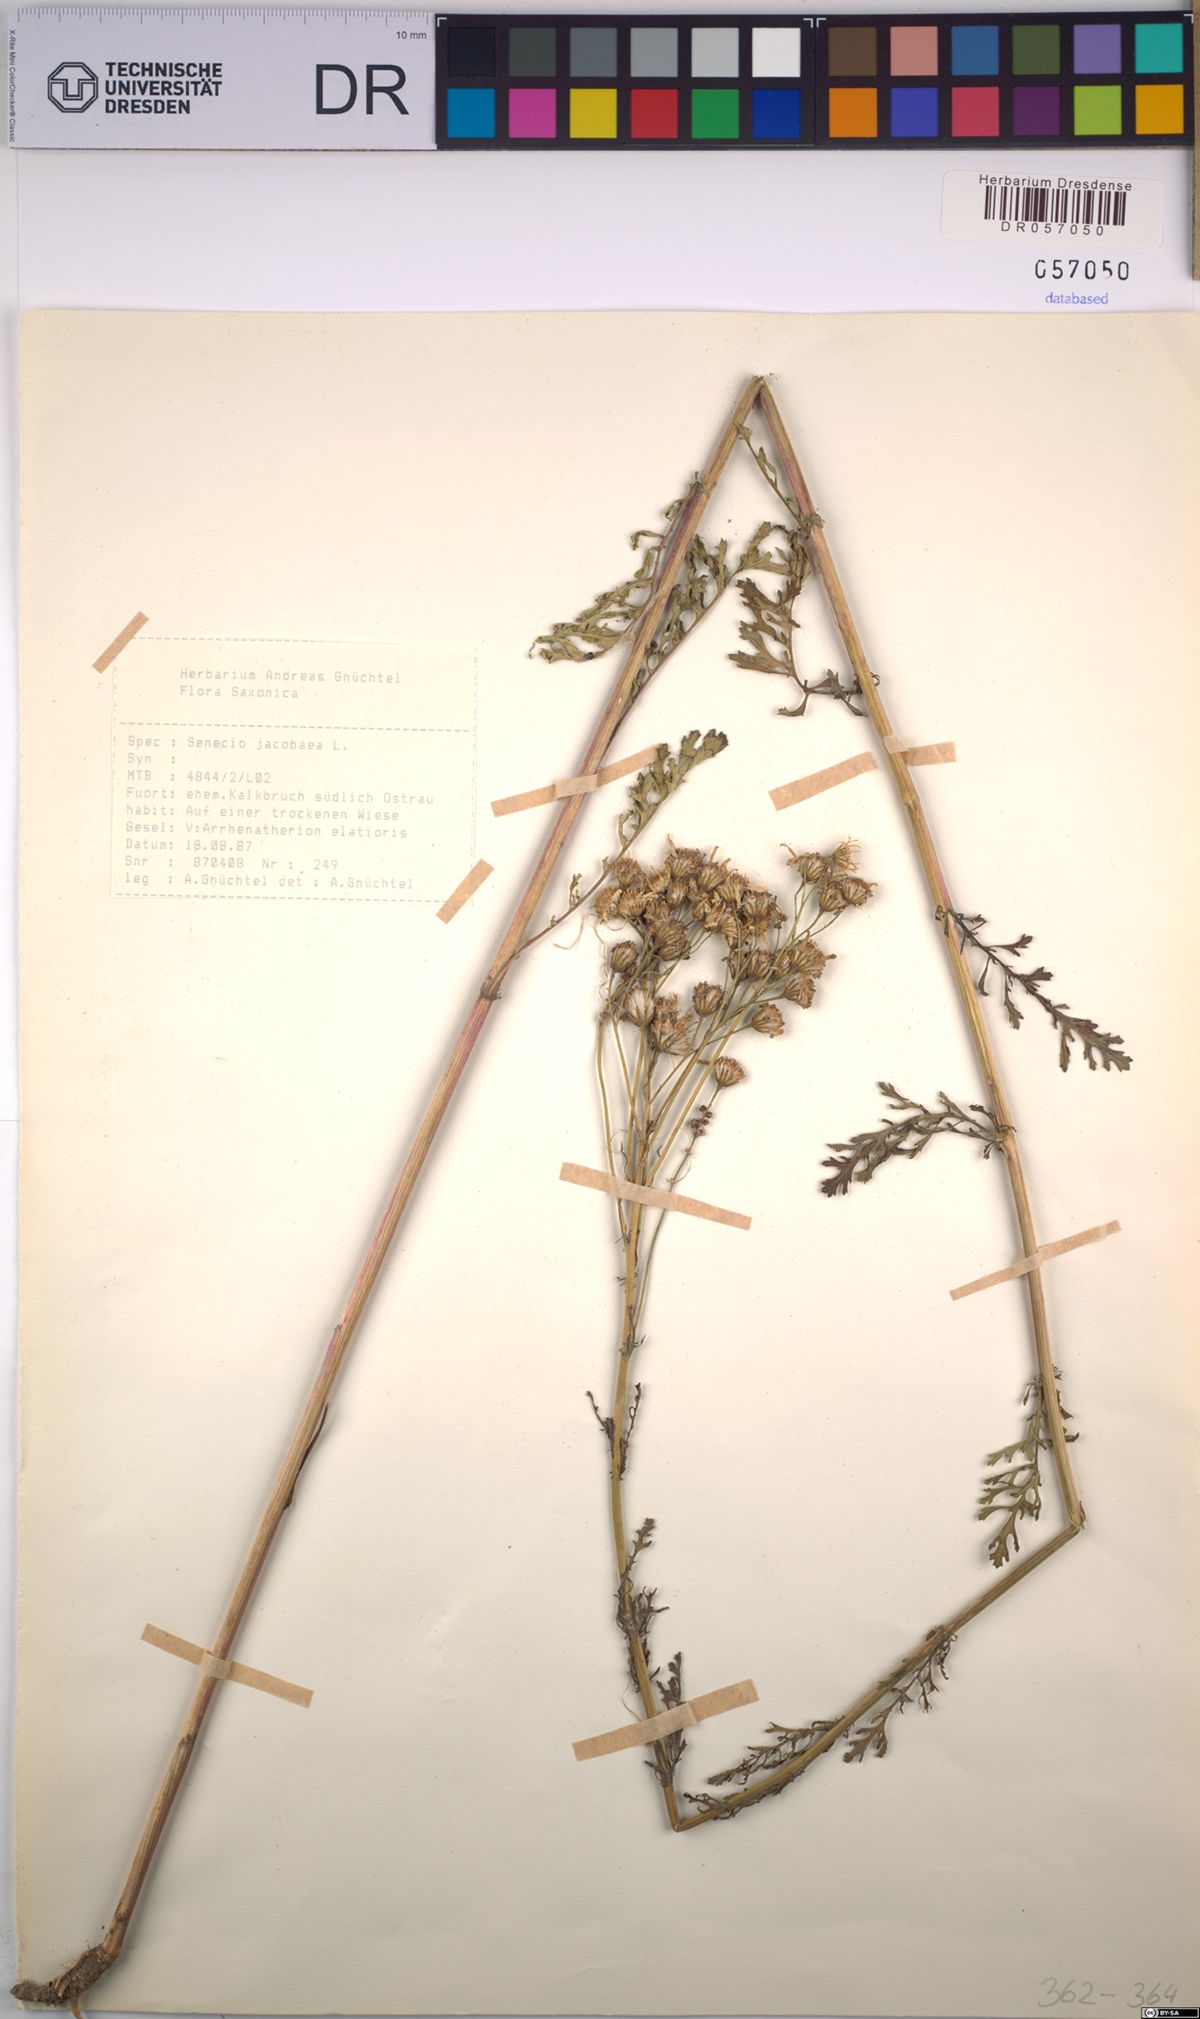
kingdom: Plantae
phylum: Tracheophyta
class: Magnoliopsida
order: Asterales
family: Asteraceae
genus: Jacobaea
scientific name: Jacobaea vulgaris
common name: Stinking willie
